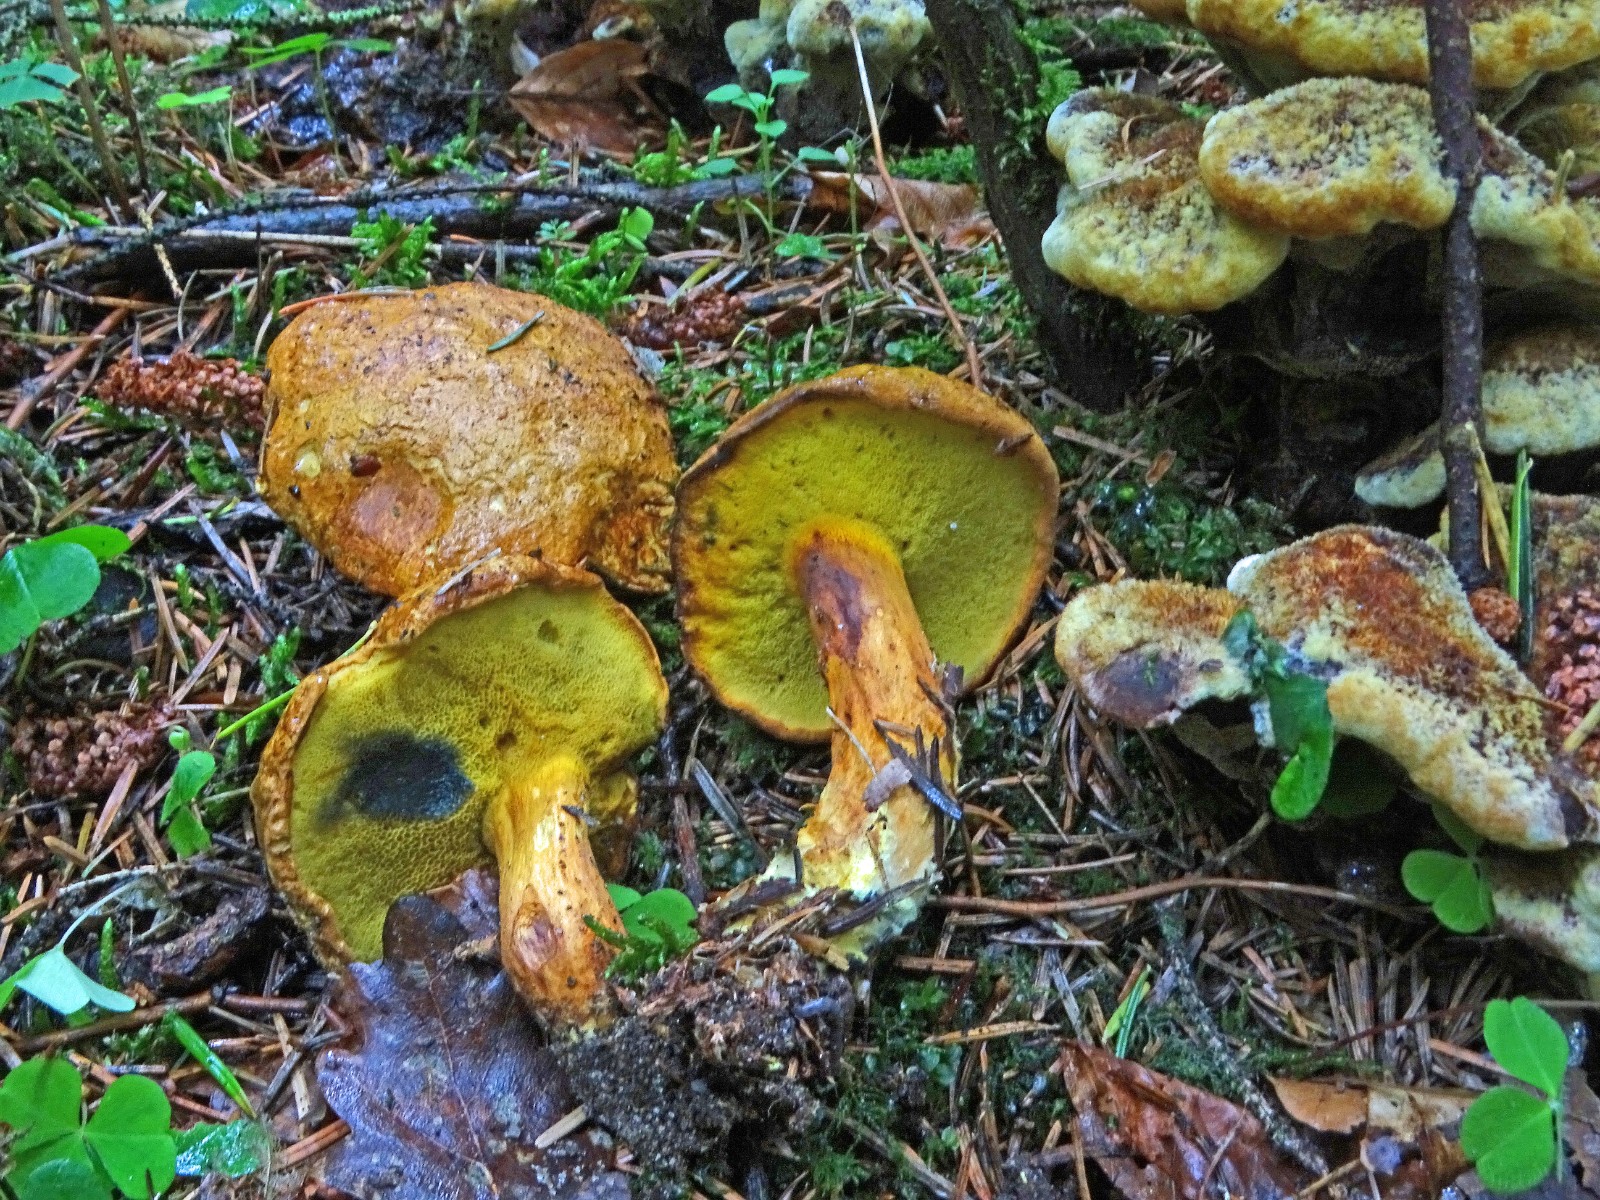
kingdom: Fungi
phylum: Basidiomycota
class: Agaricomycetes
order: Boletales
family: Boletaceae
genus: Buchwaldoboletus
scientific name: Buchwaldoboletus lignicola
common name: stødrørhat
